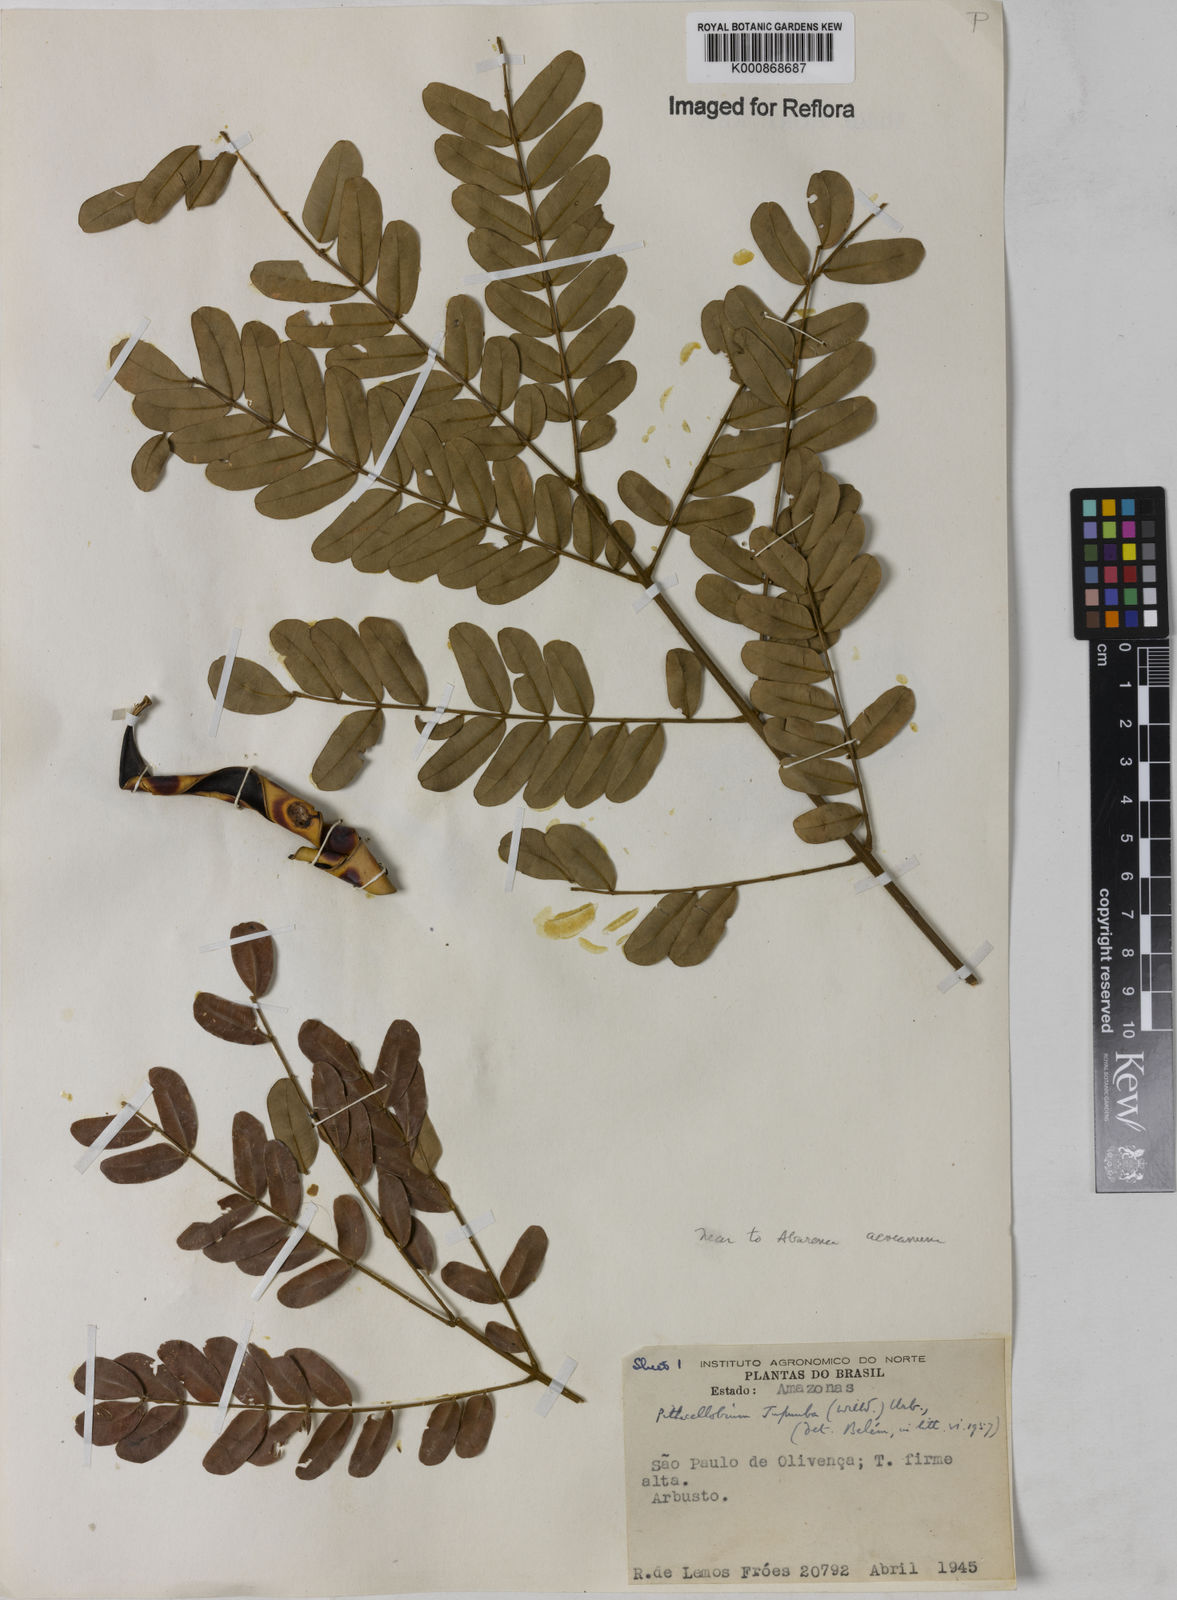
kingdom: Plantae
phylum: Tracheophyta
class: Magnoliopsida
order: Fabales
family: Fabaceae
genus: Jupunba
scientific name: Jupunba floribunda
